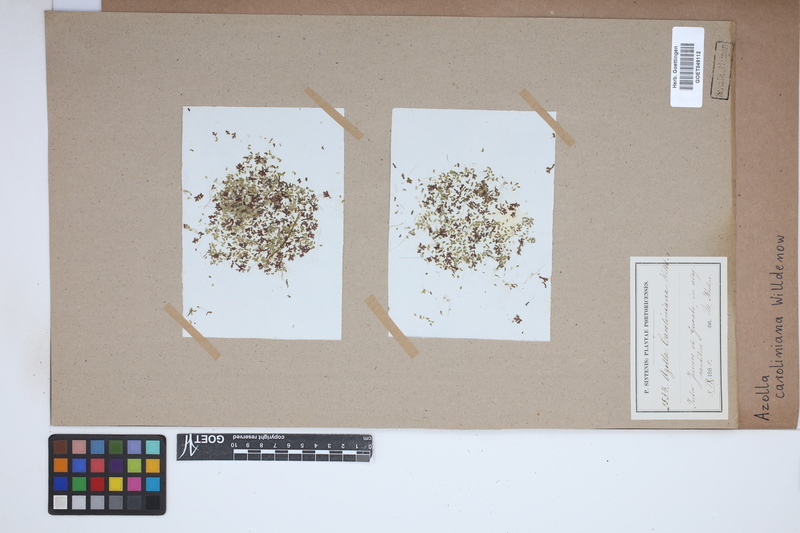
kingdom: Plantae
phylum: Tracheophyta
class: Polypodiopsida
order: Salviniales
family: Salviniaceae
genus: Azolla
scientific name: Azolla caroliniana
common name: Carolina mosquitofern
